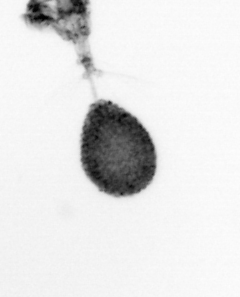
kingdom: Animalia
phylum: Arthropoda
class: Copepoda
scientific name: Copepoda
